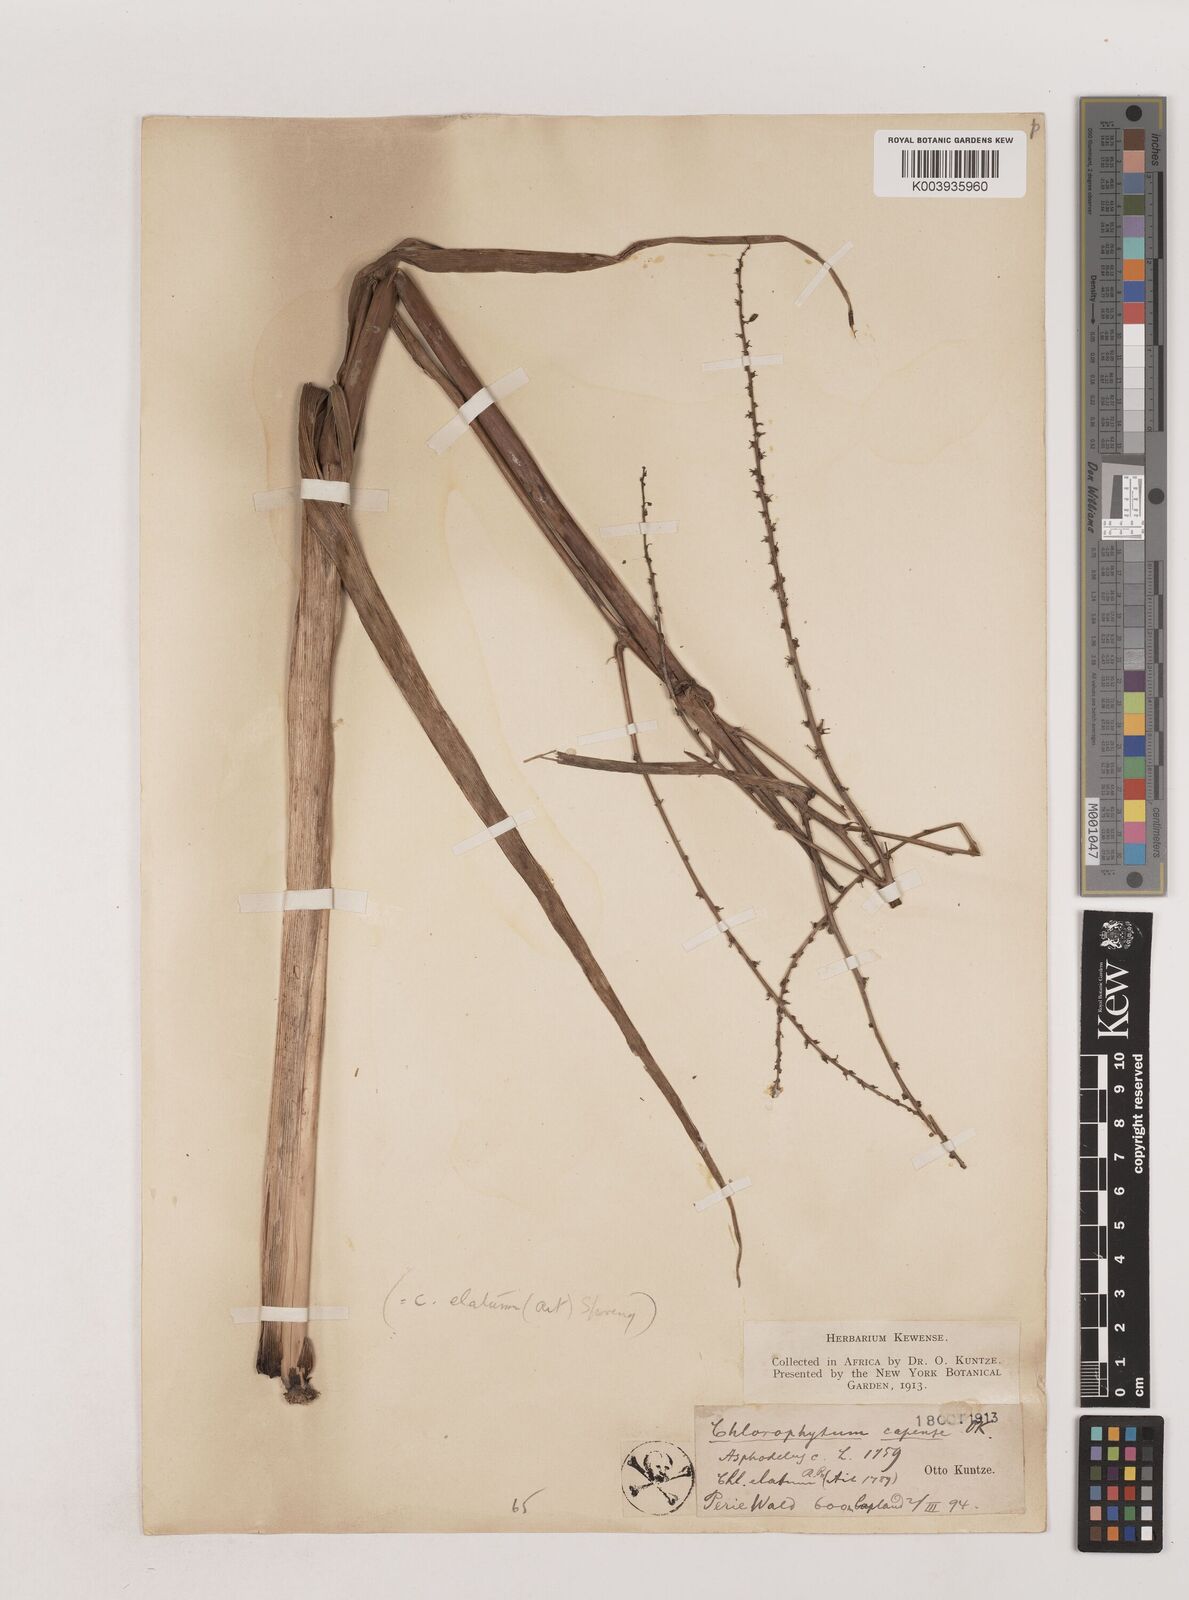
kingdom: Plantae
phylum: Tracheophyta
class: Liliopsida
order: Asparagales
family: Asparagaceae
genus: Chlorophytum
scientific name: Chlorophytum capense
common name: Bracketplant
